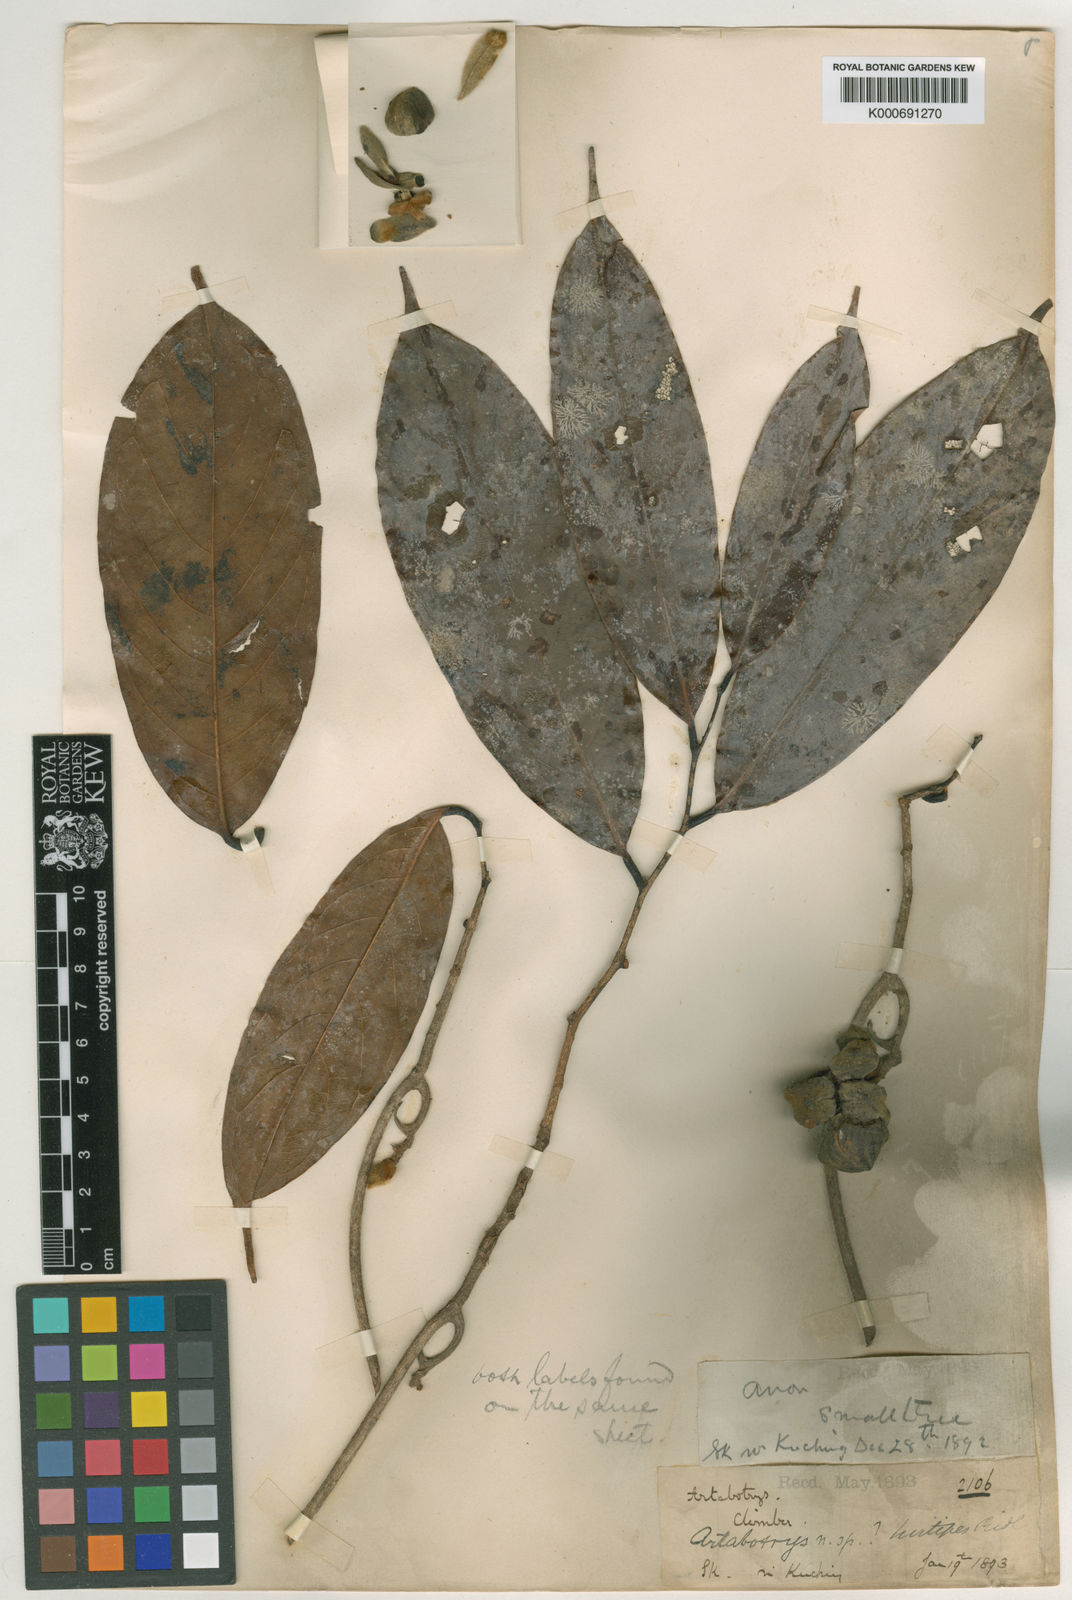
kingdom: Plantae
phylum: Tracheophyta
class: Magnoliopsida
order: Magnoliales
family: Annonaceae
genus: Artabotrys
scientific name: Artabotrys hirtipes
